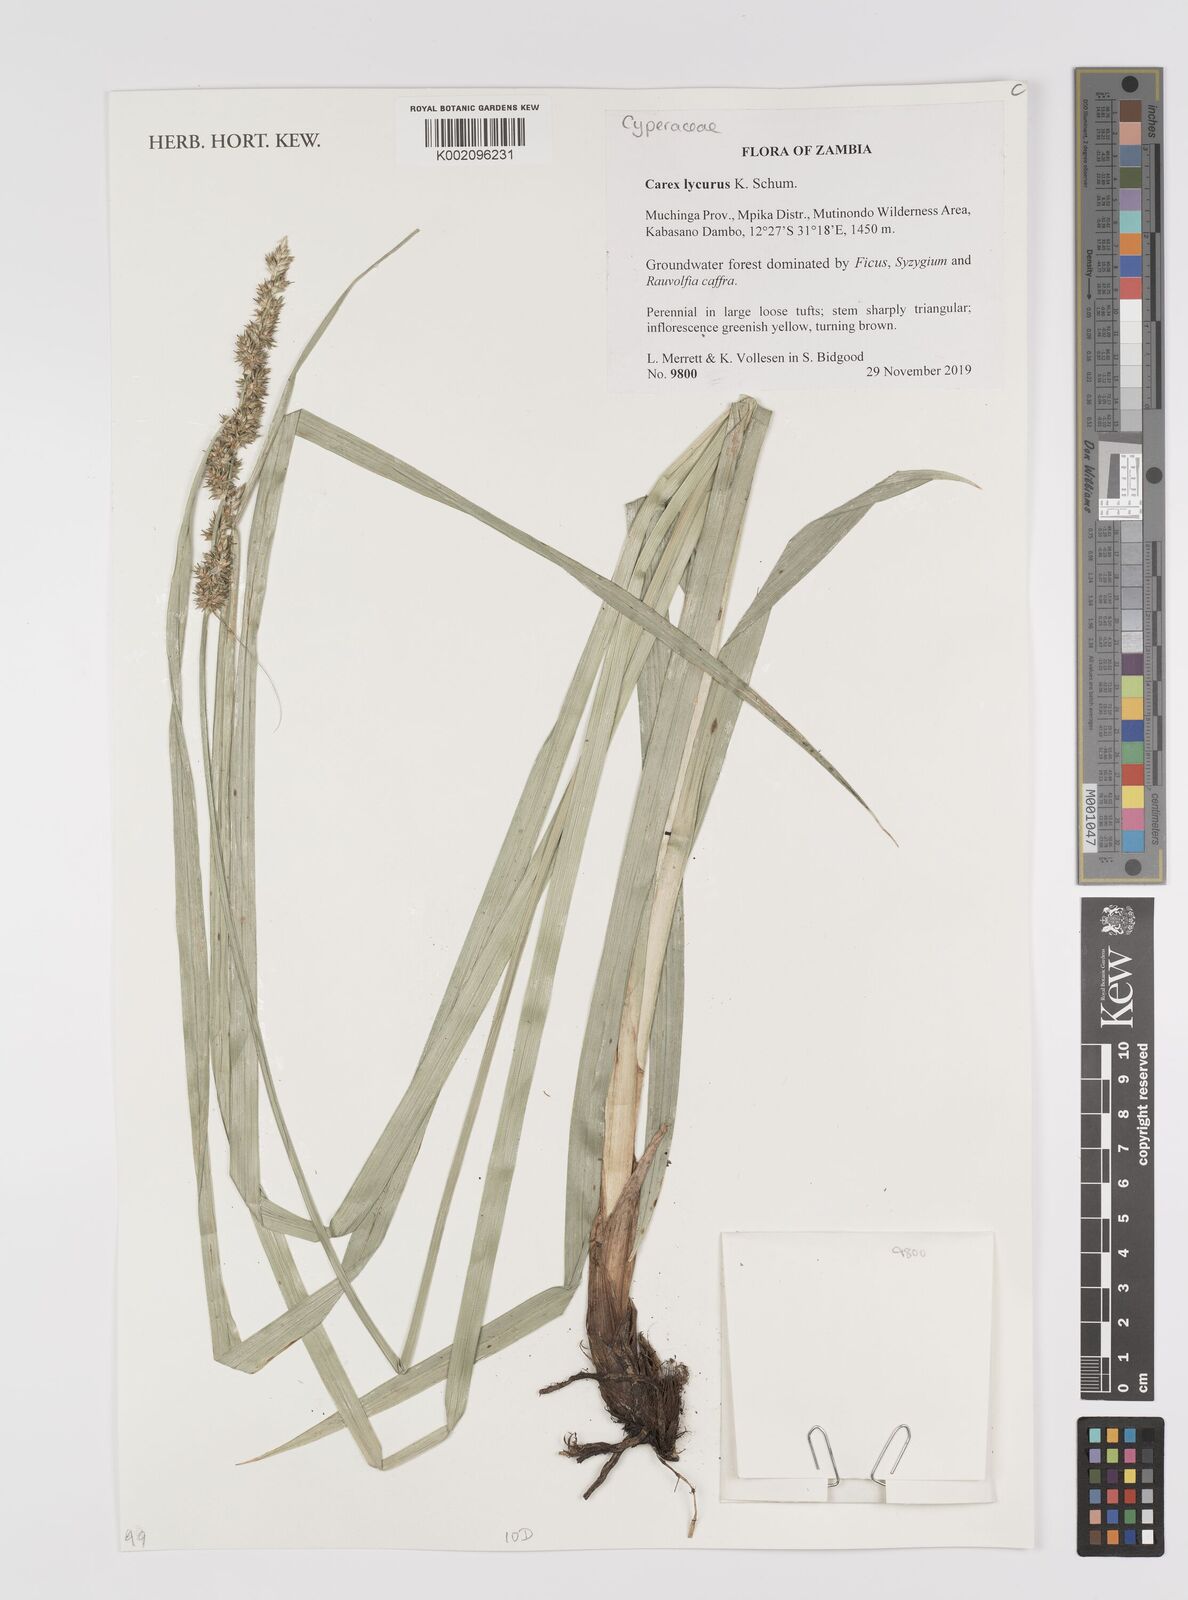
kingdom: Plantae
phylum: Tracheophyta
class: Liliopsida
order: Poales
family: Cyperaceae
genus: Carex
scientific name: Carex lycurus
